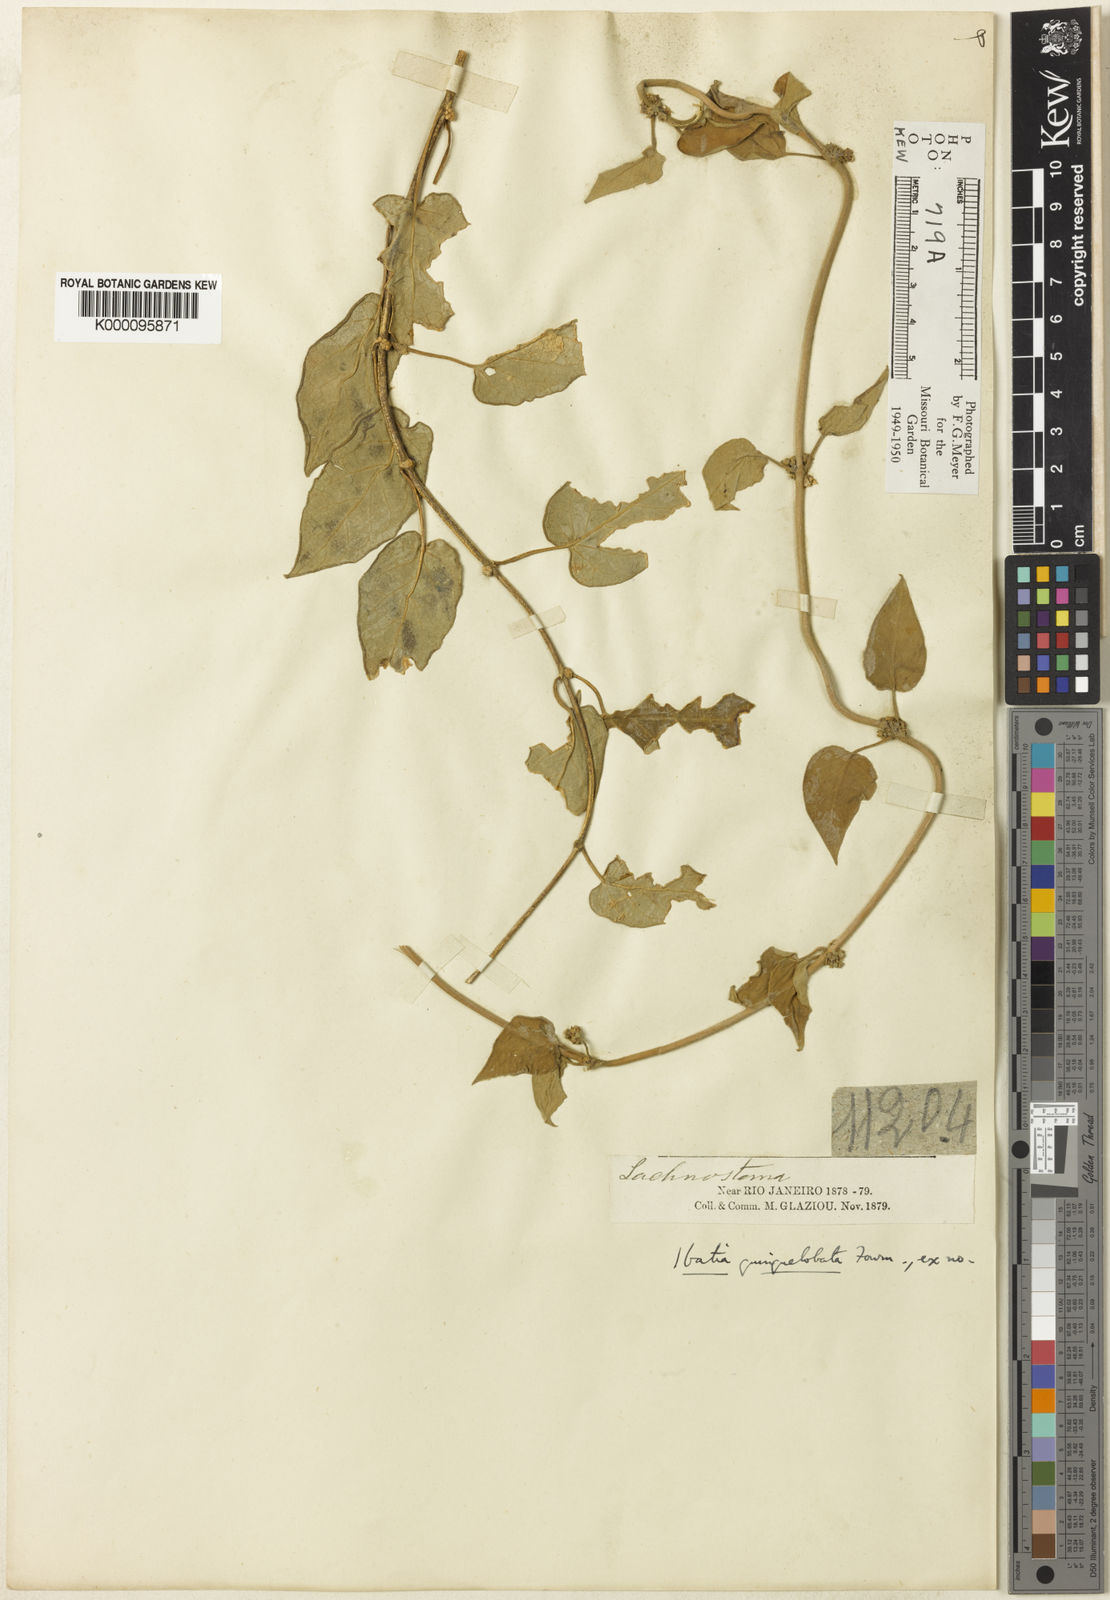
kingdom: Plantae
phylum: Tracheophyta
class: Magnoliopsida
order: Gentianales
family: Apocynaceae
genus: Ibatia
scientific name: Ibatia ganglinosa
